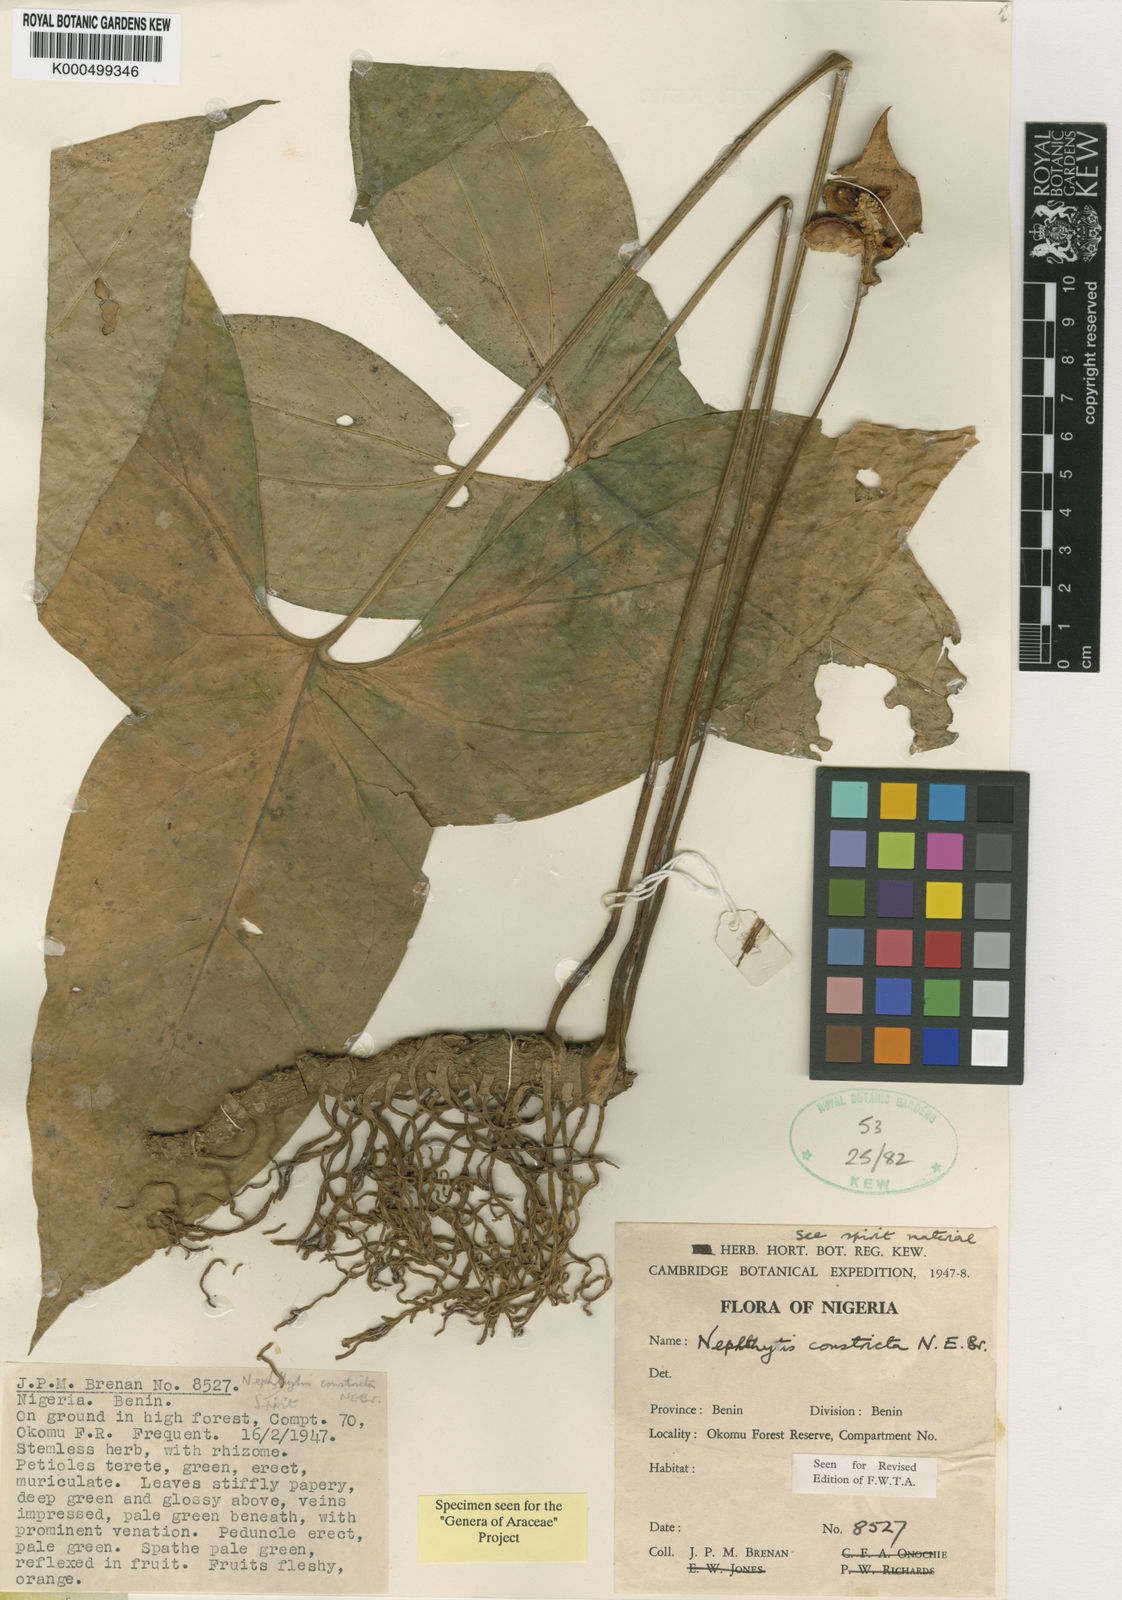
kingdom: Plantae
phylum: Tracheophyta
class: Liliopsida
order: Alismatales
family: Araceae
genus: Nephthytis
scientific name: Nephthytis
